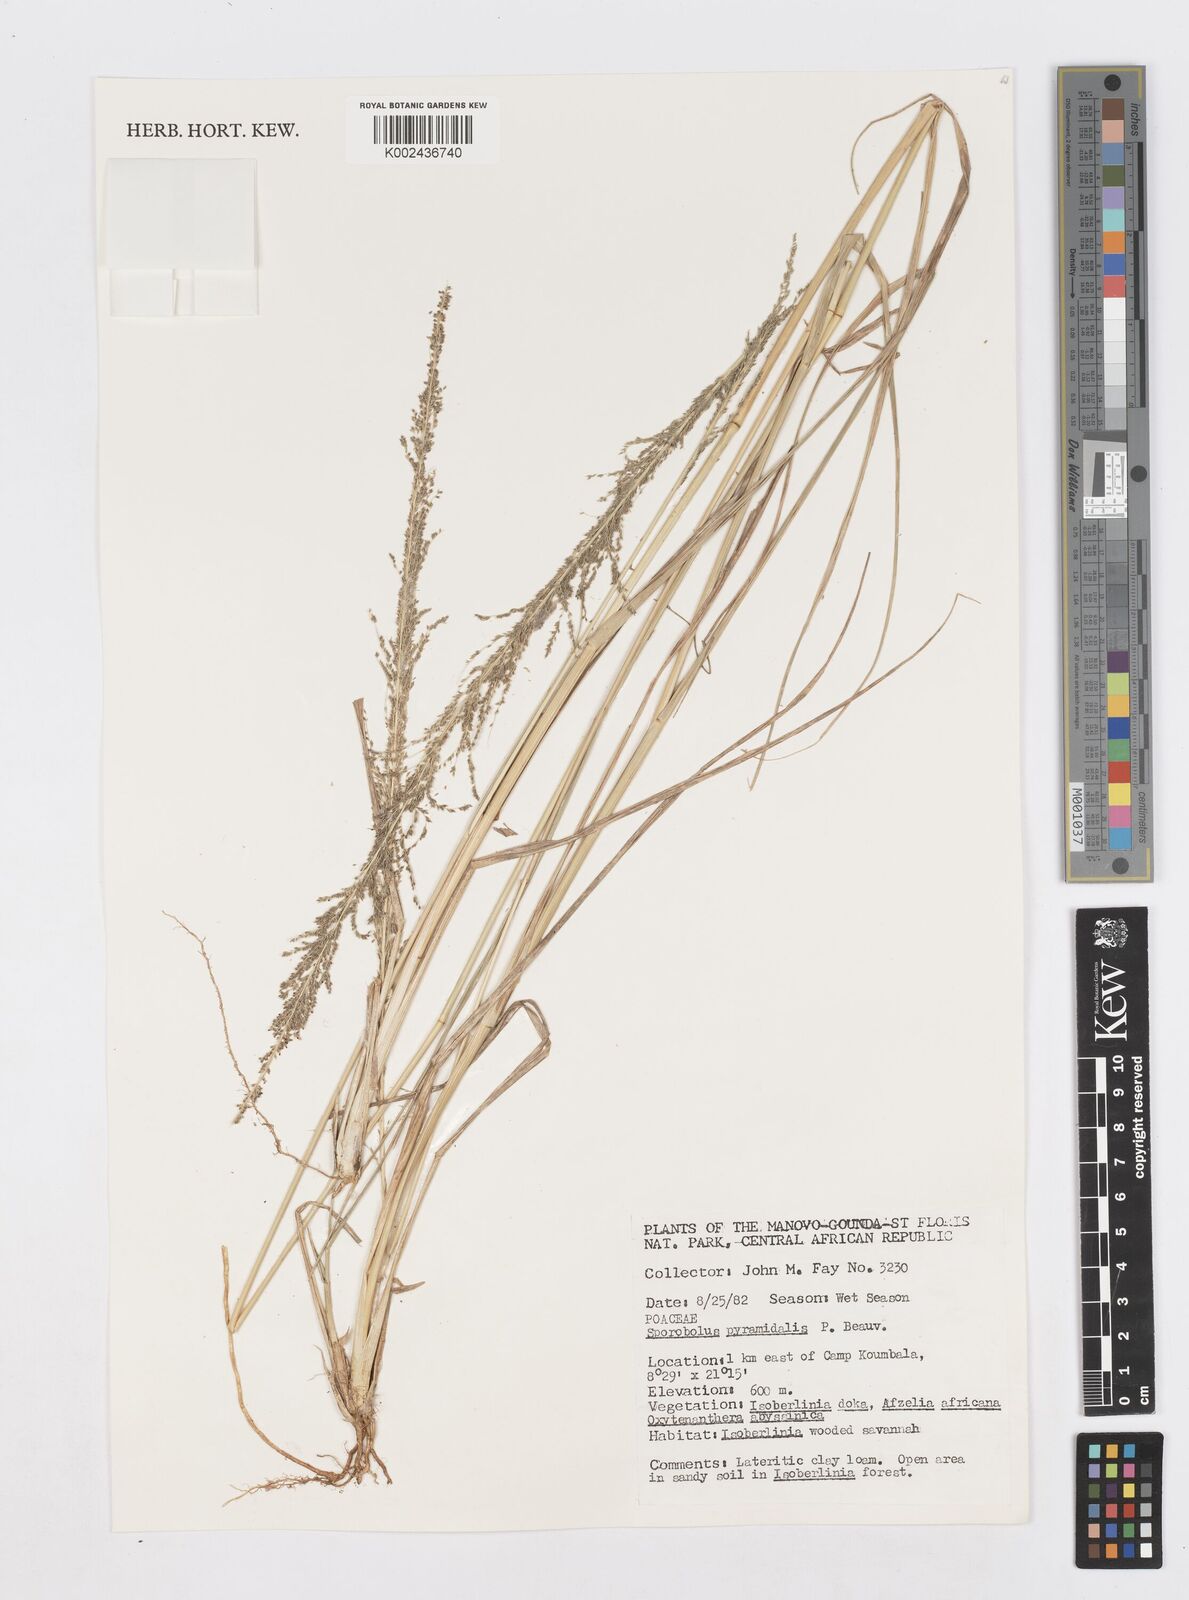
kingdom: Plantae
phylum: Tracheophyta
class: Liliopsida
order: Poales
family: Poaceae
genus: Sporobolus
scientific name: Sporobolus pyramidalis
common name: West indian dropseed
